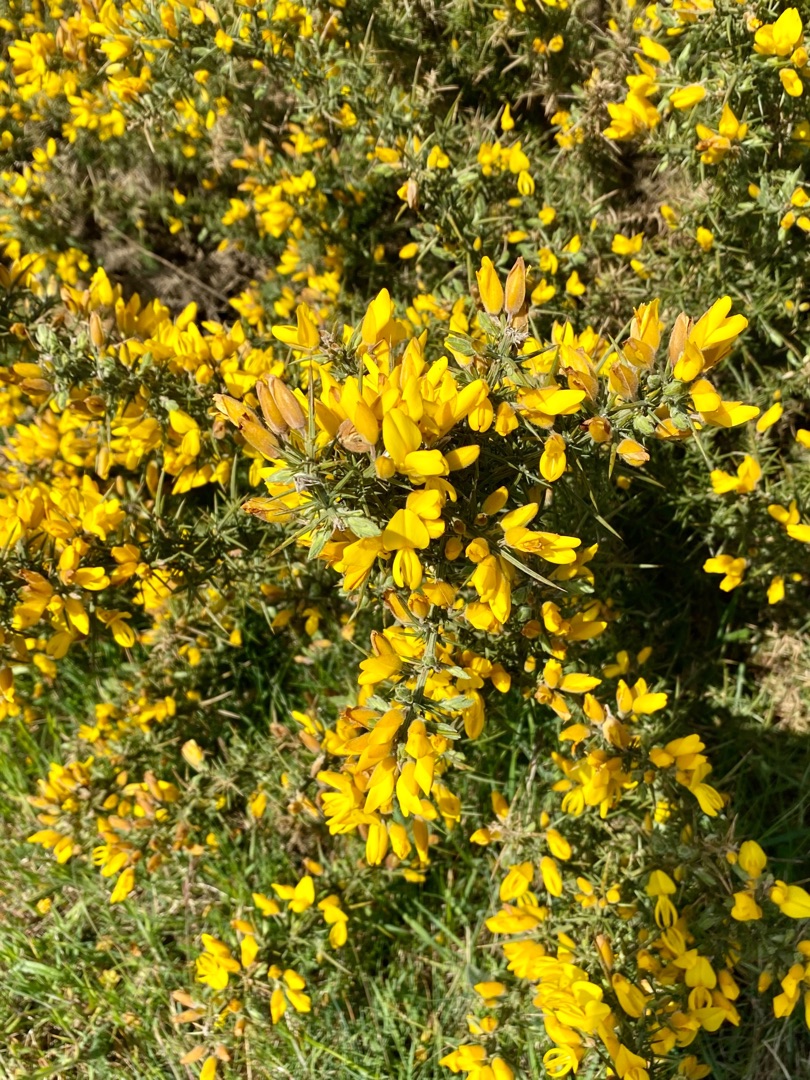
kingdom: Plantae
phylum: Tracheophyta
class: Magnoliopsida
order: Fabales
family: Fabaceae
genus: Ulex
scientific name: Ulex europaeus
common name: Tornblad
